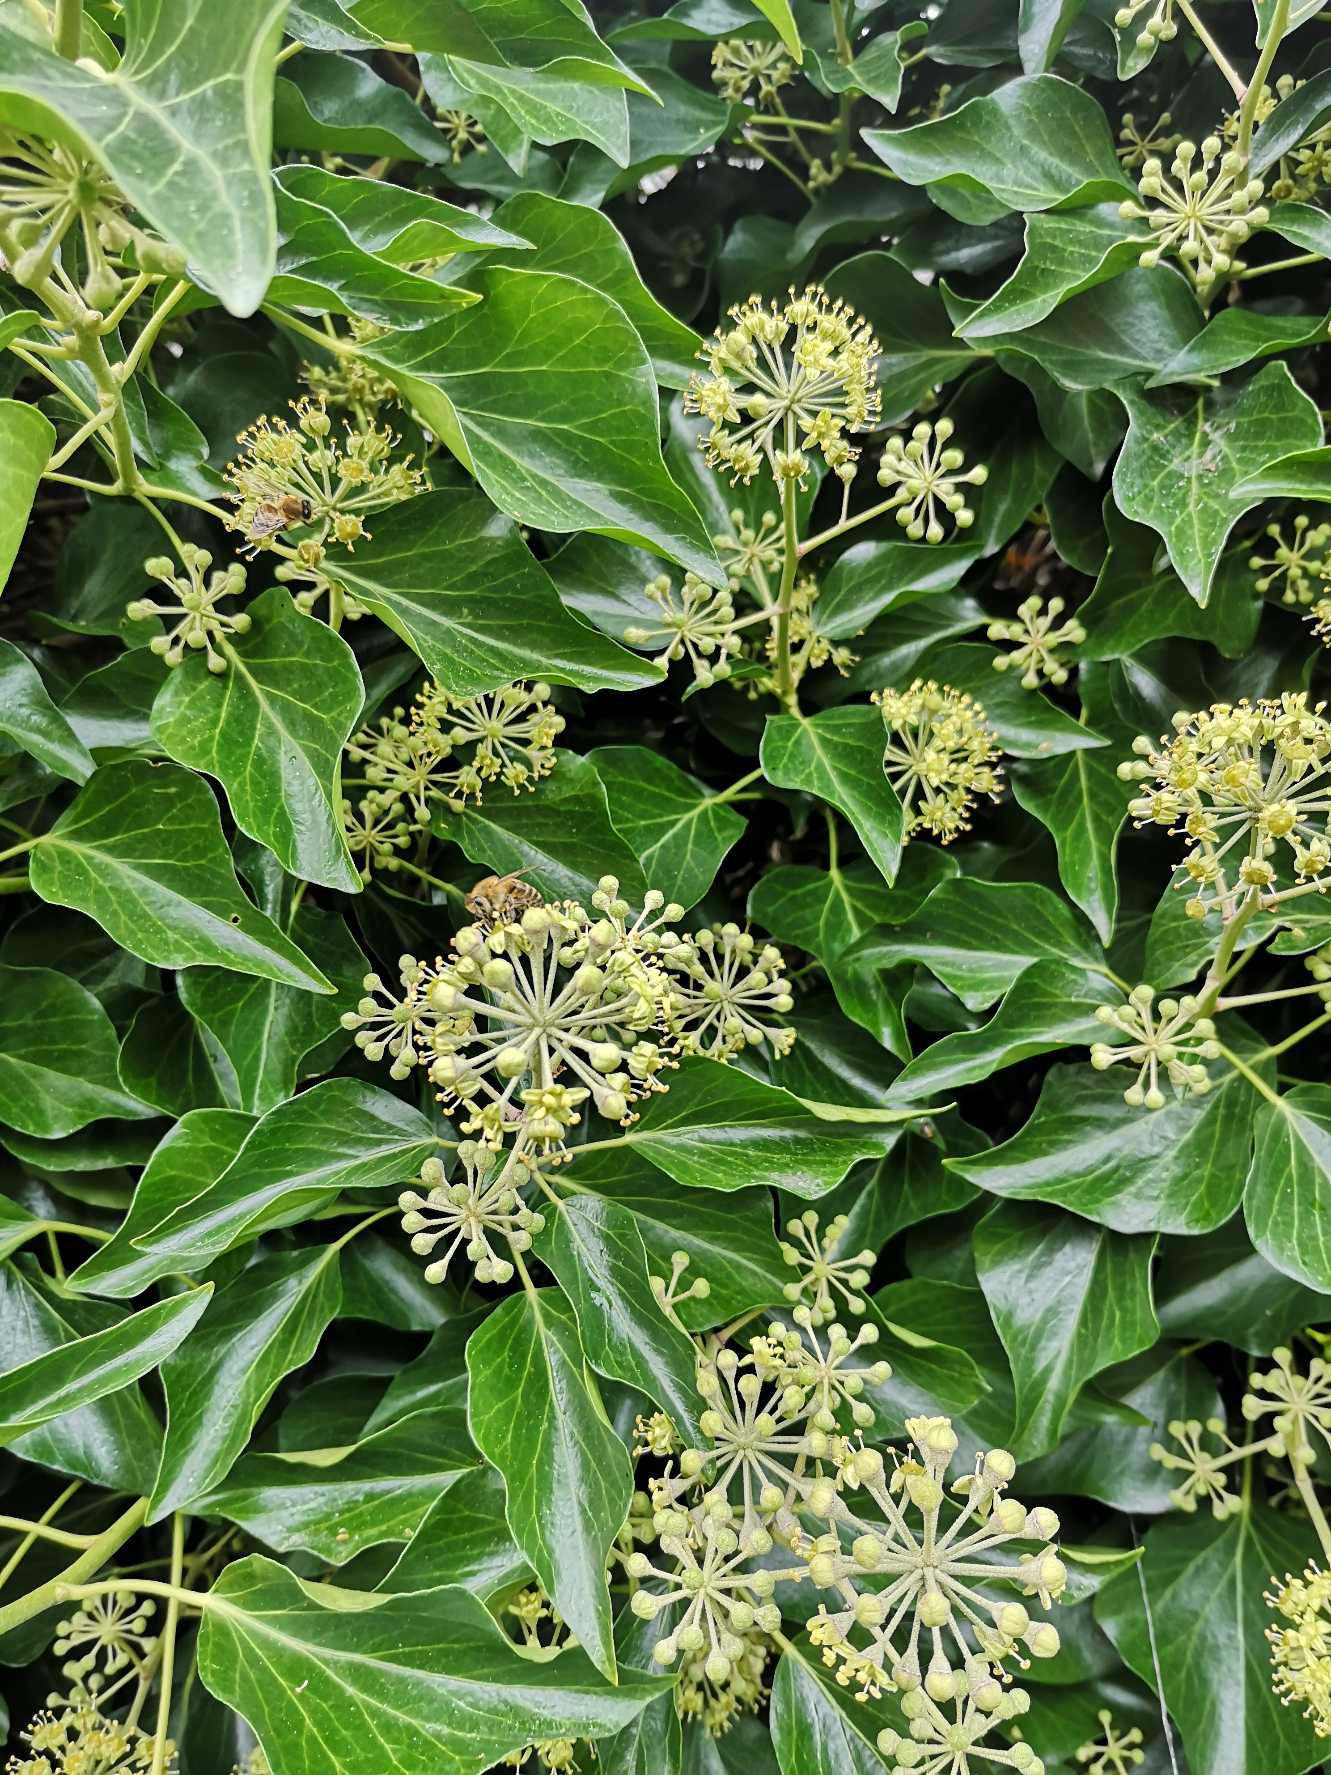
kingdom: Plantae
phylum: Tracheophyta
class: Magnoliopsida
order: Apiales
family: Araliaceae
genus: Hedera
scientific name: Hedera helix
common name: Vedbend
